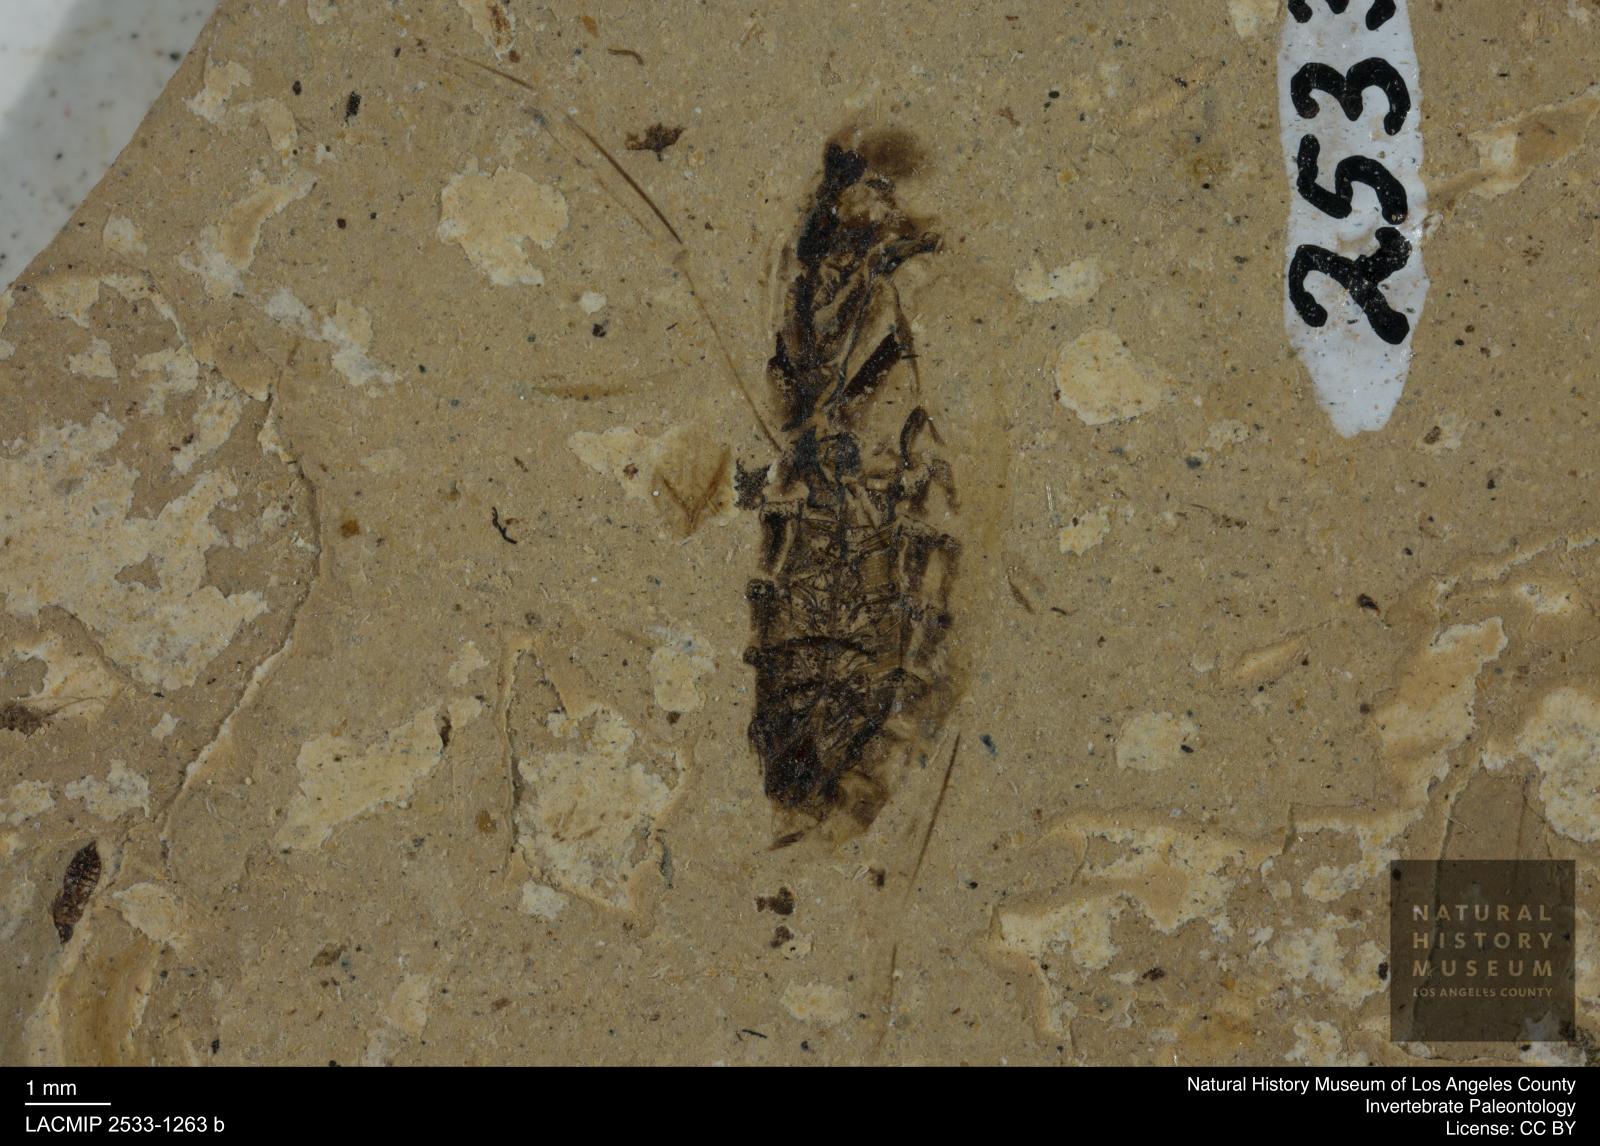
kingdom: Animalia
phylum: Arthropoda
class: Insecta
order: Hemiptera
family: Notonectidae
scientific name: Notonectidae
